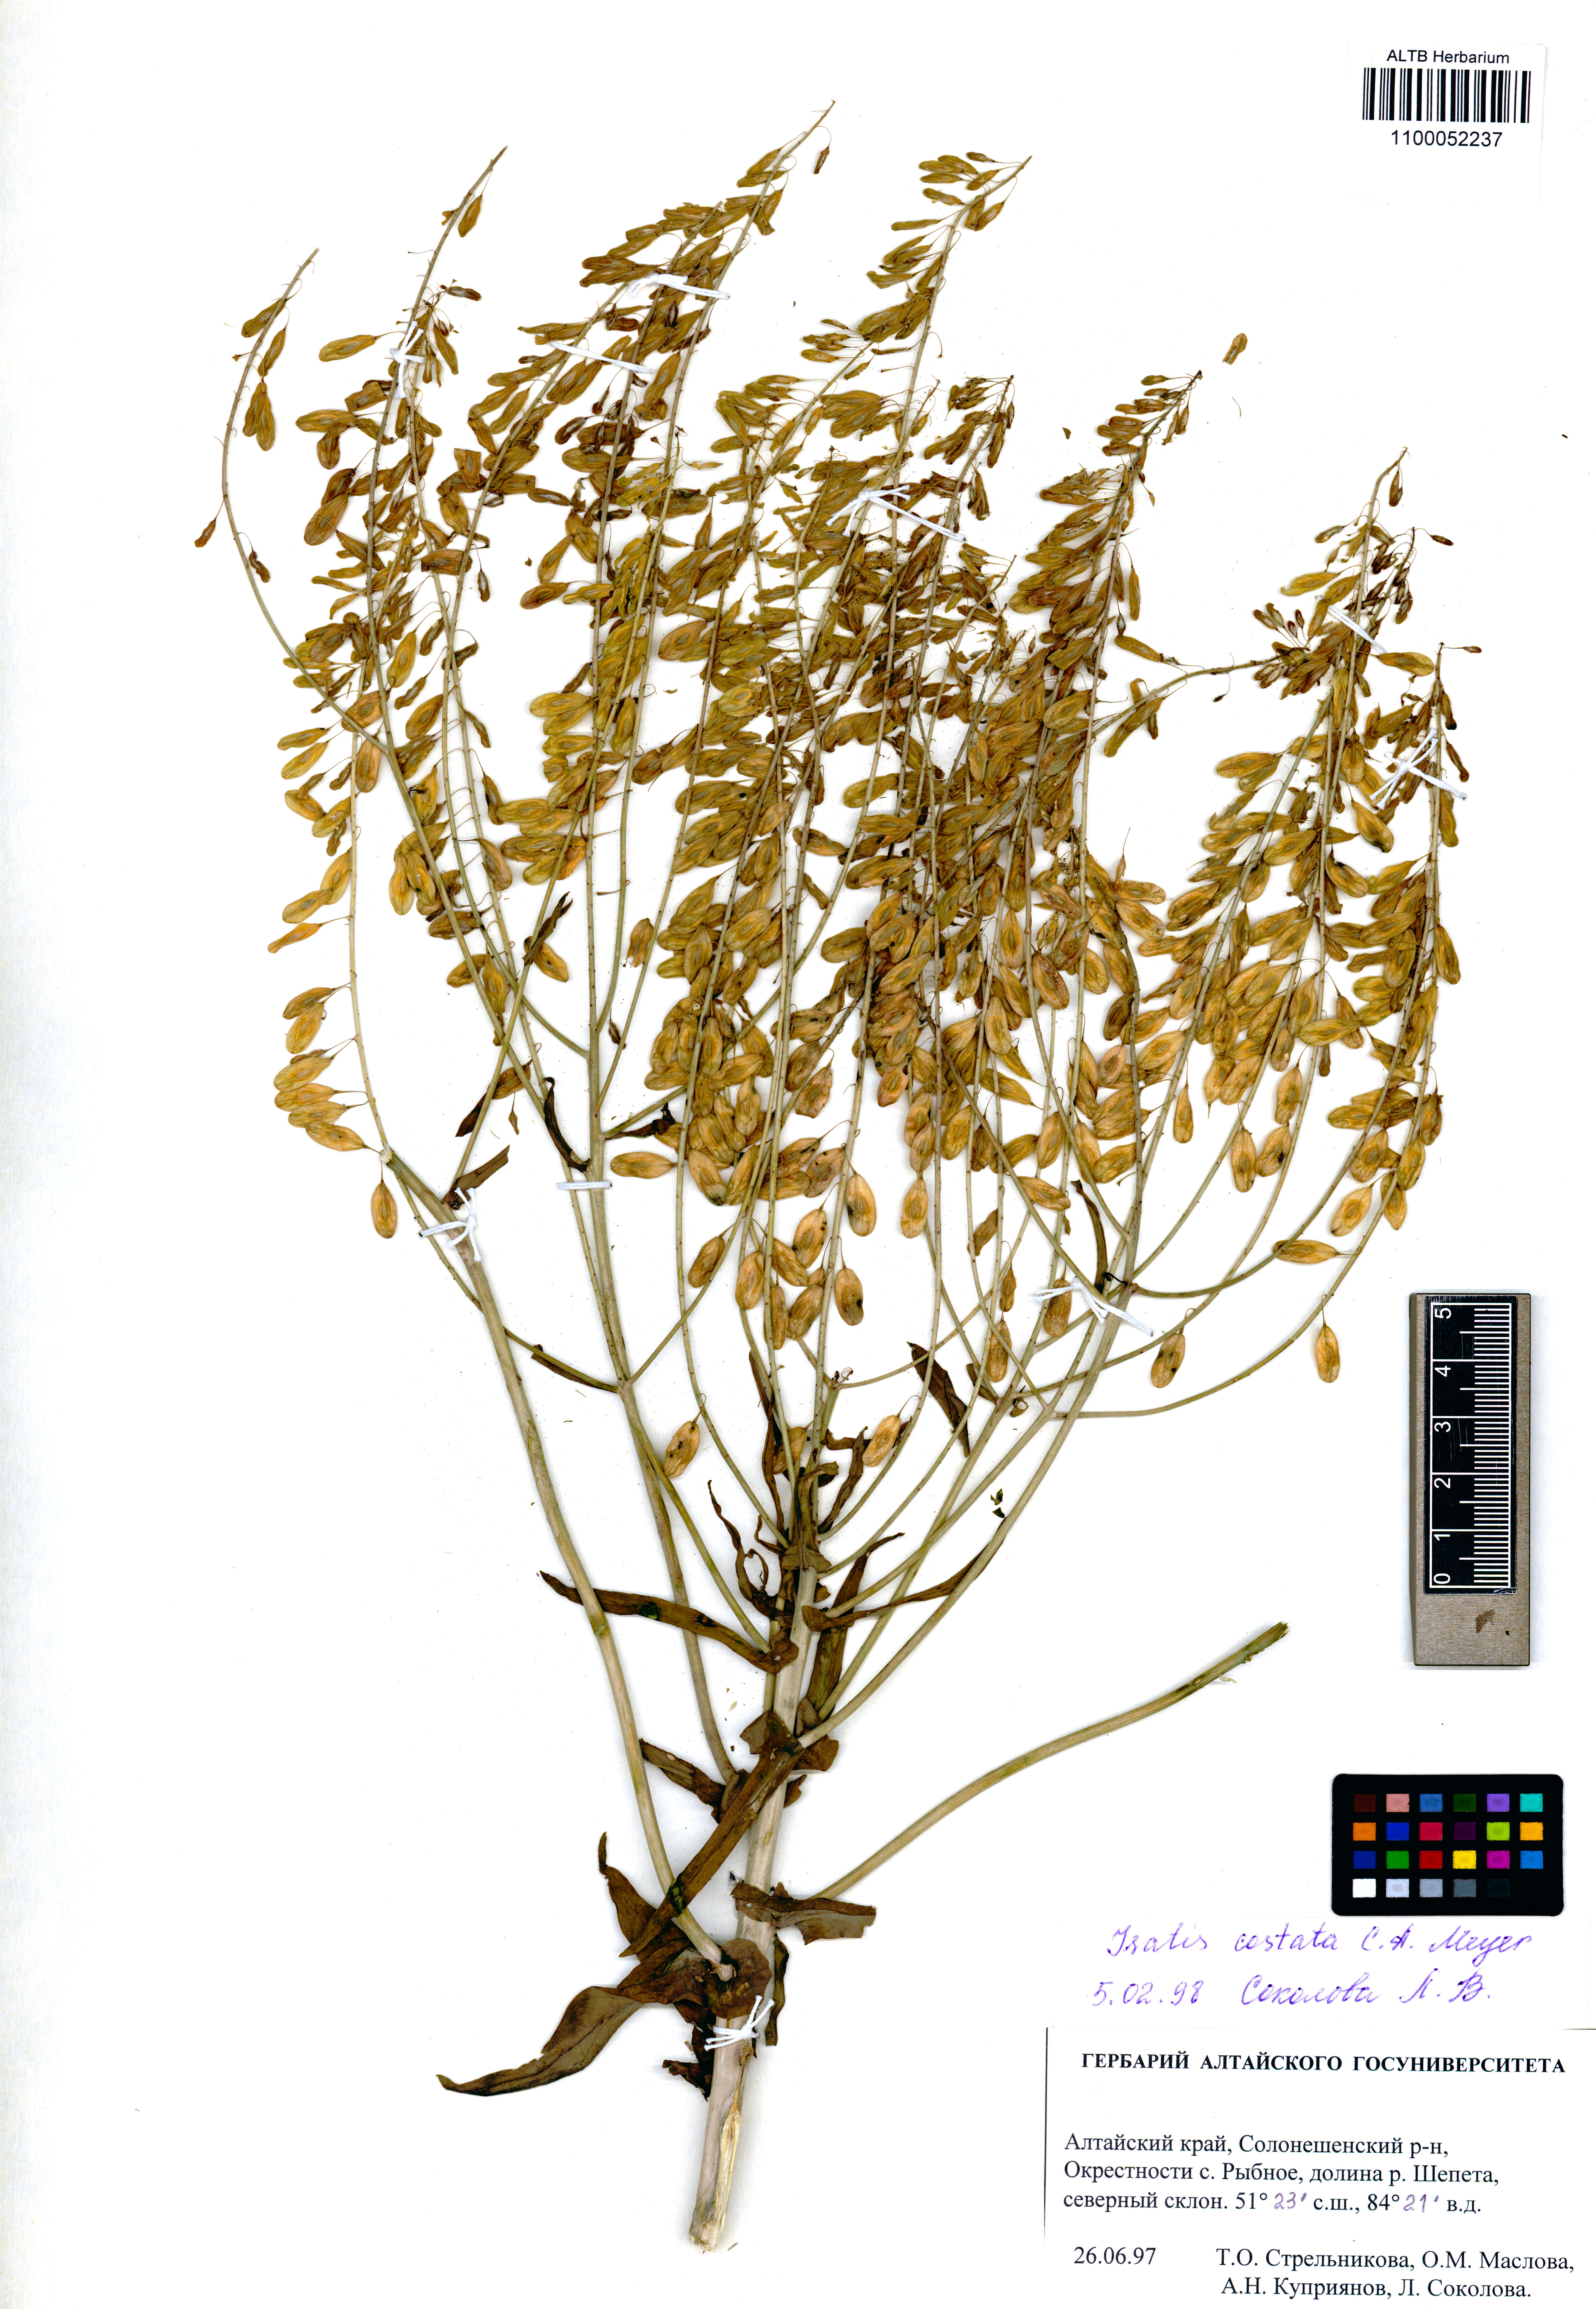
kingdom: Plantae
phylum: Tracheophyta
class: Magnoliopsida
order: Brassicales
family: Brassicaceae
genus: Isatis
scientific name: Isatis costata
